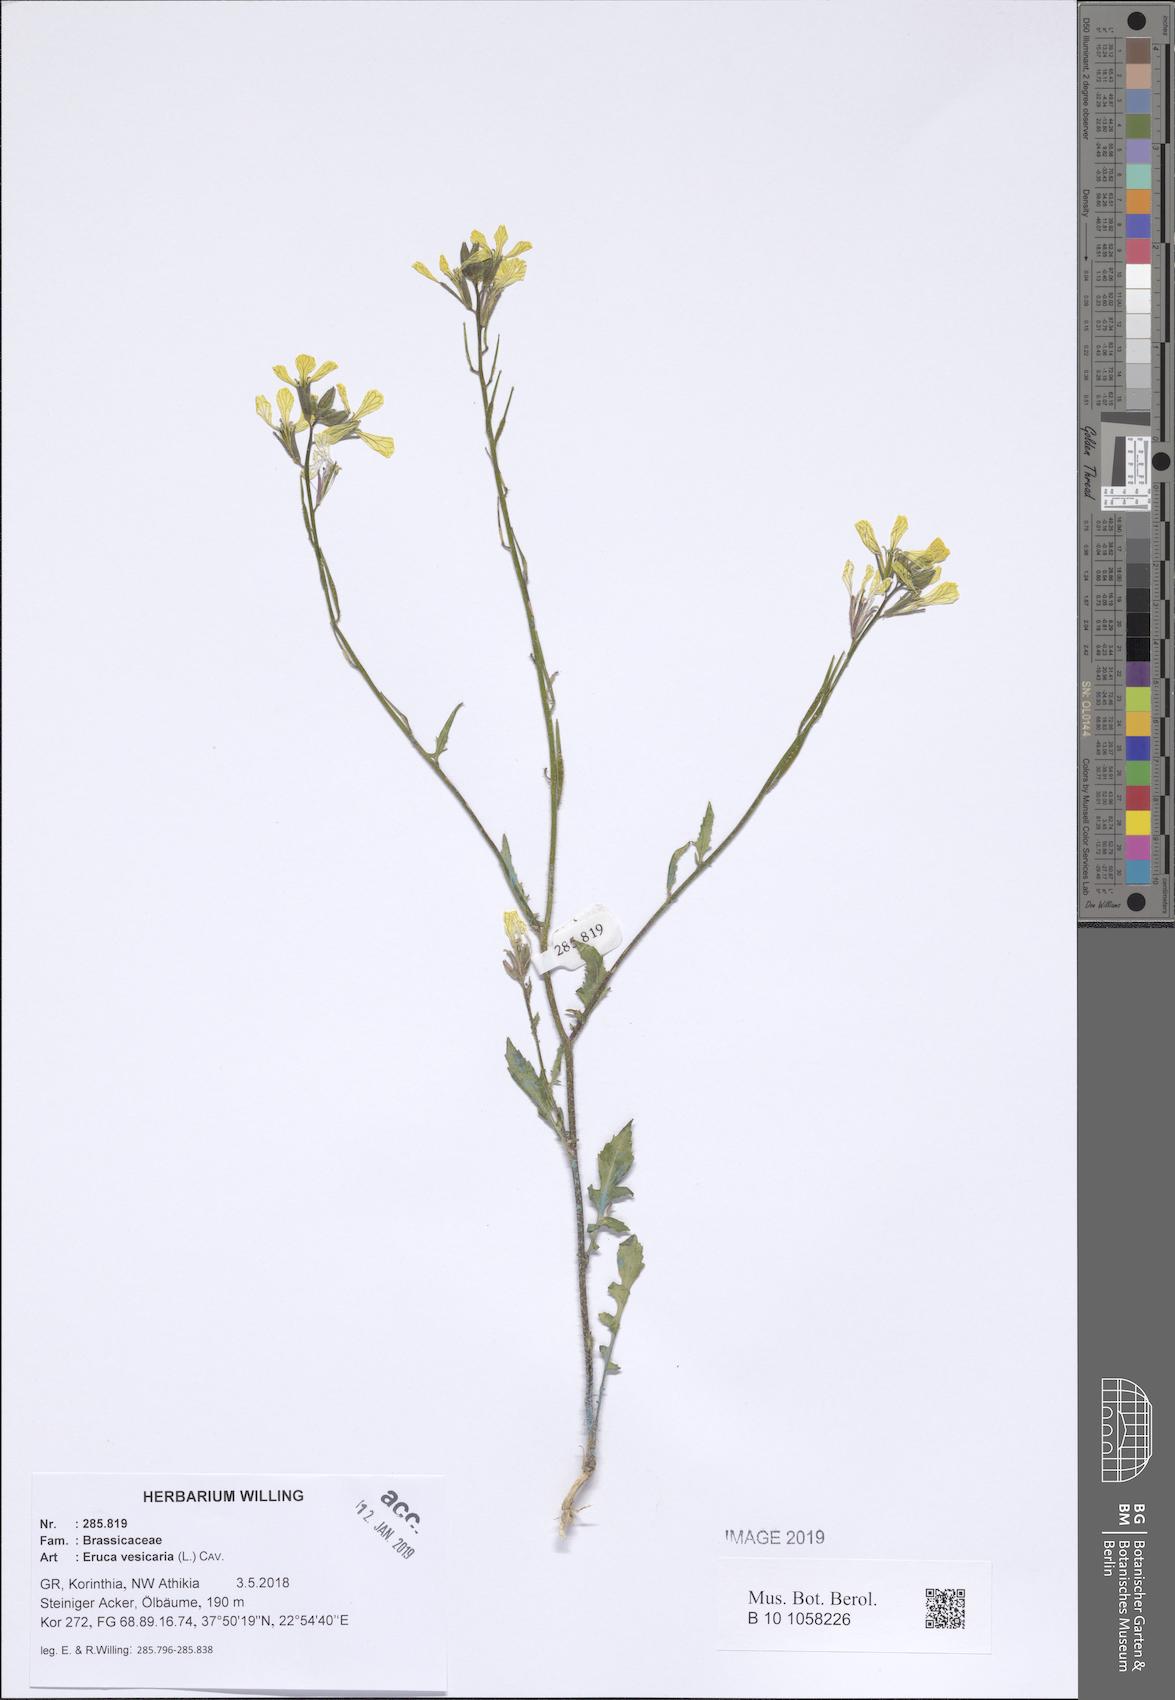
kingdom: Plantae
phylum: Tracheophyta
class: Magnoliopsida
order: Brassicales
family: Brassicaceae
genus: Eruca
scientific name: Eruca vesicaria
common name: Garden rocket
